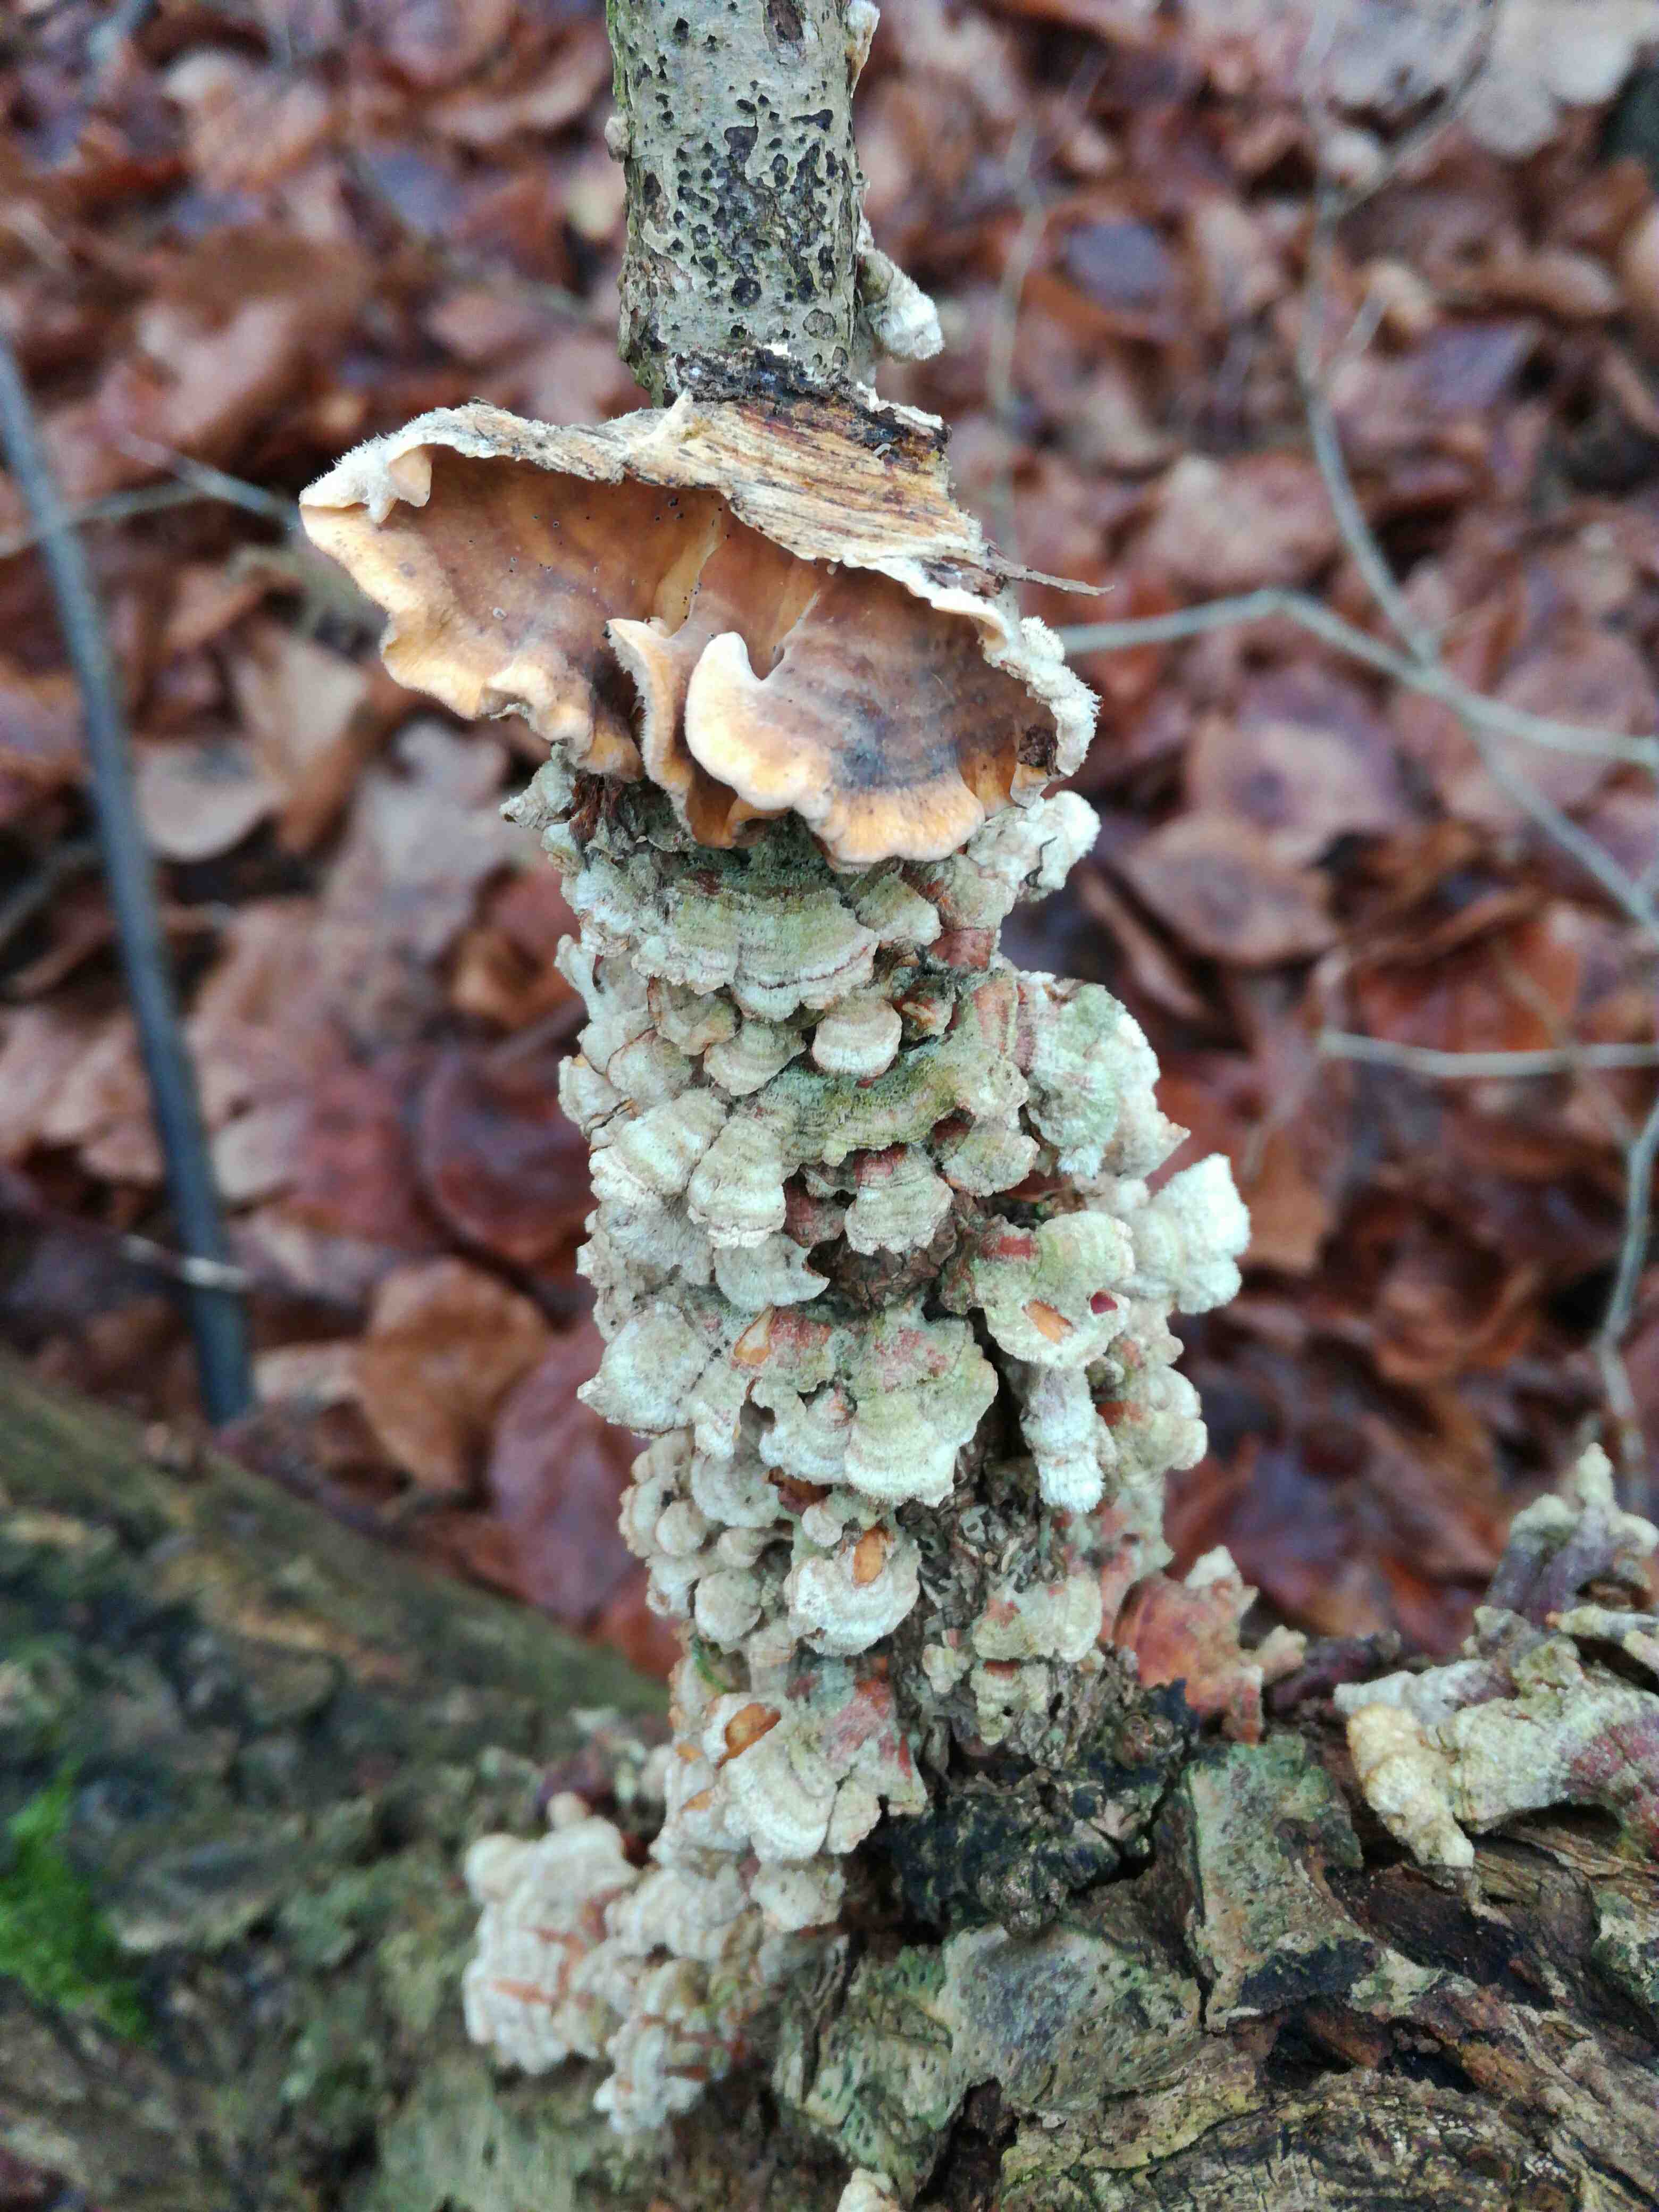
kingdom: Fungi
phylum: Basidiomycota
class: Agaricomycetes
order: Polyporales
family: Polyporaceae
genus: Trametes
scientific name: Trametes hirsuta
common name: håret læderporesvamp
